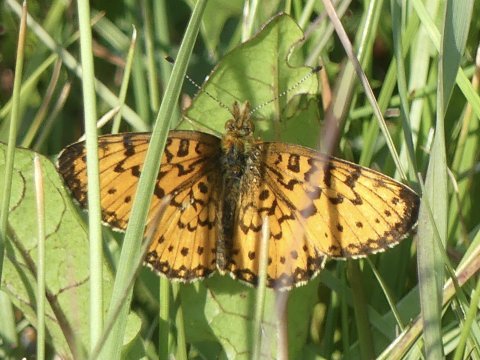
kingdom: Animalia
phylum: Arthropoda
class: Insecta
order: Lepidoptera
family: Nymphalidae
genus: Boloria
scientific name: Boloria selene
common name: Silver-bordered Fritillary
